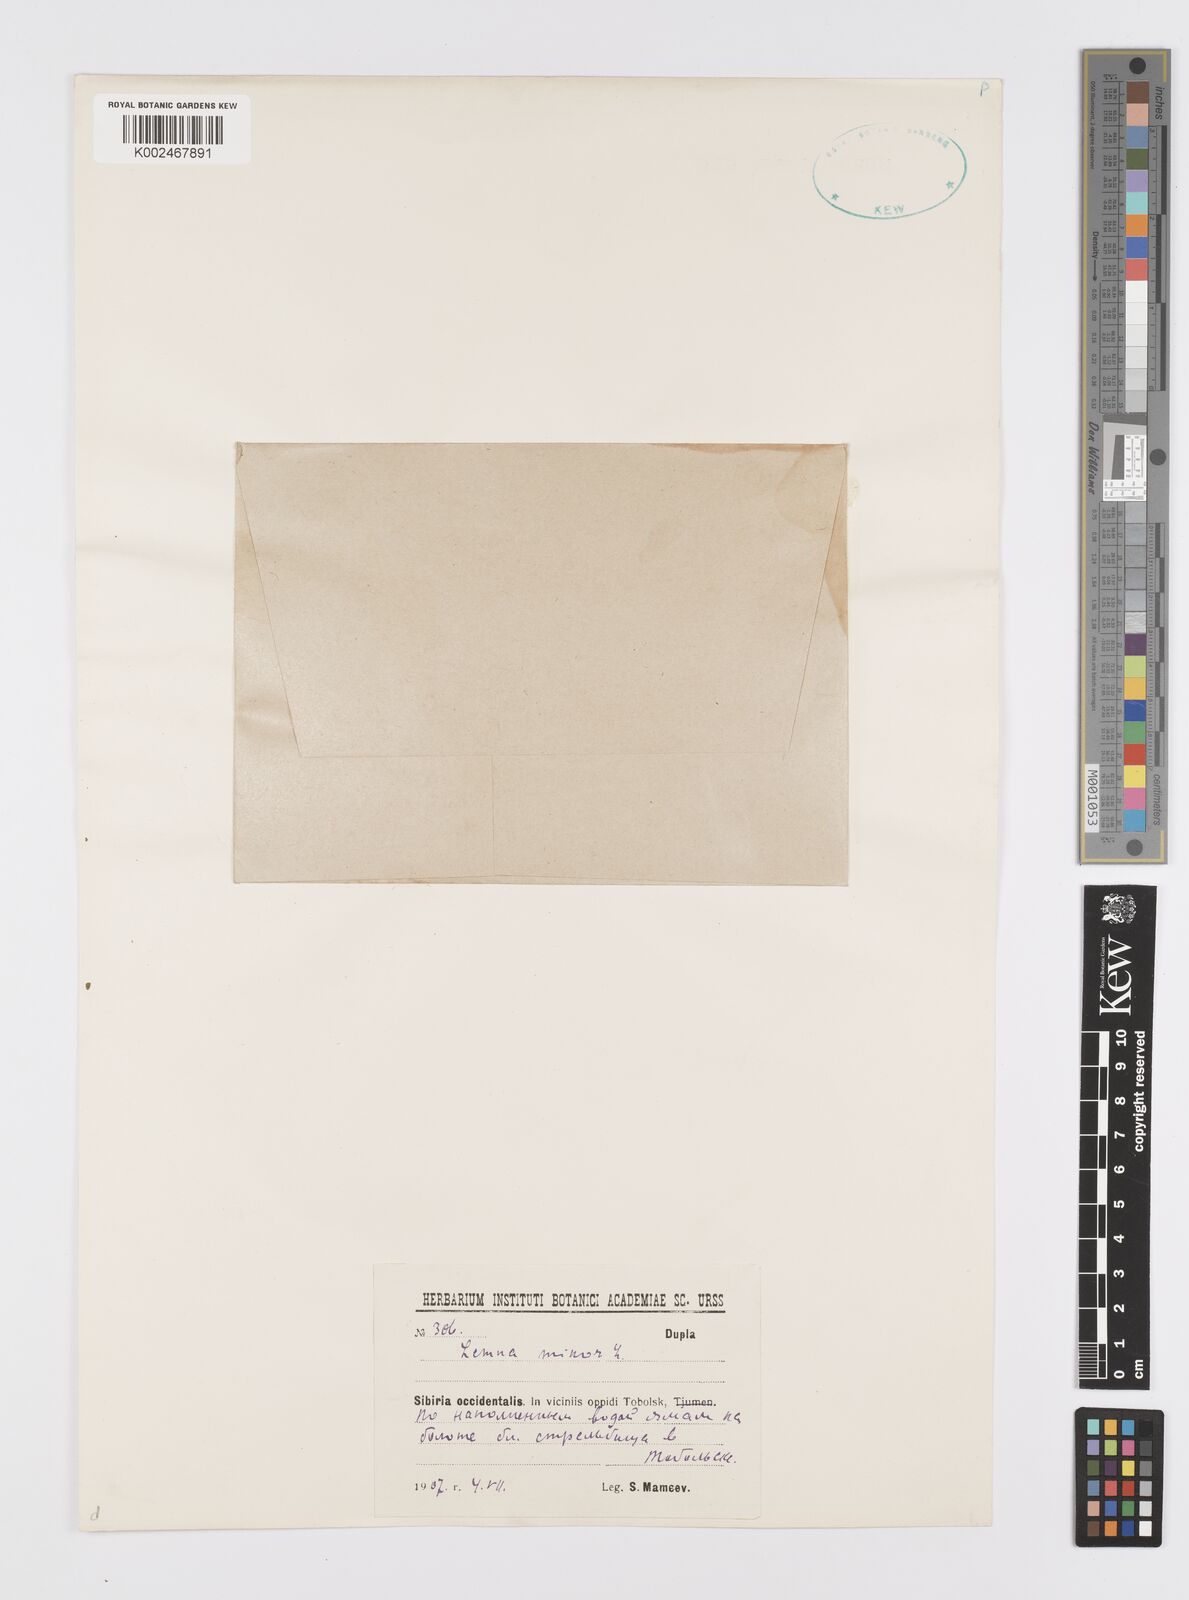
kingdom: Plantae
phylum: Tracheophyta
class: Liliopsida
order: Alismatales
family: Araceae
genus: Lemna
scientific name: Lemna minor
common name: Common duckweed
